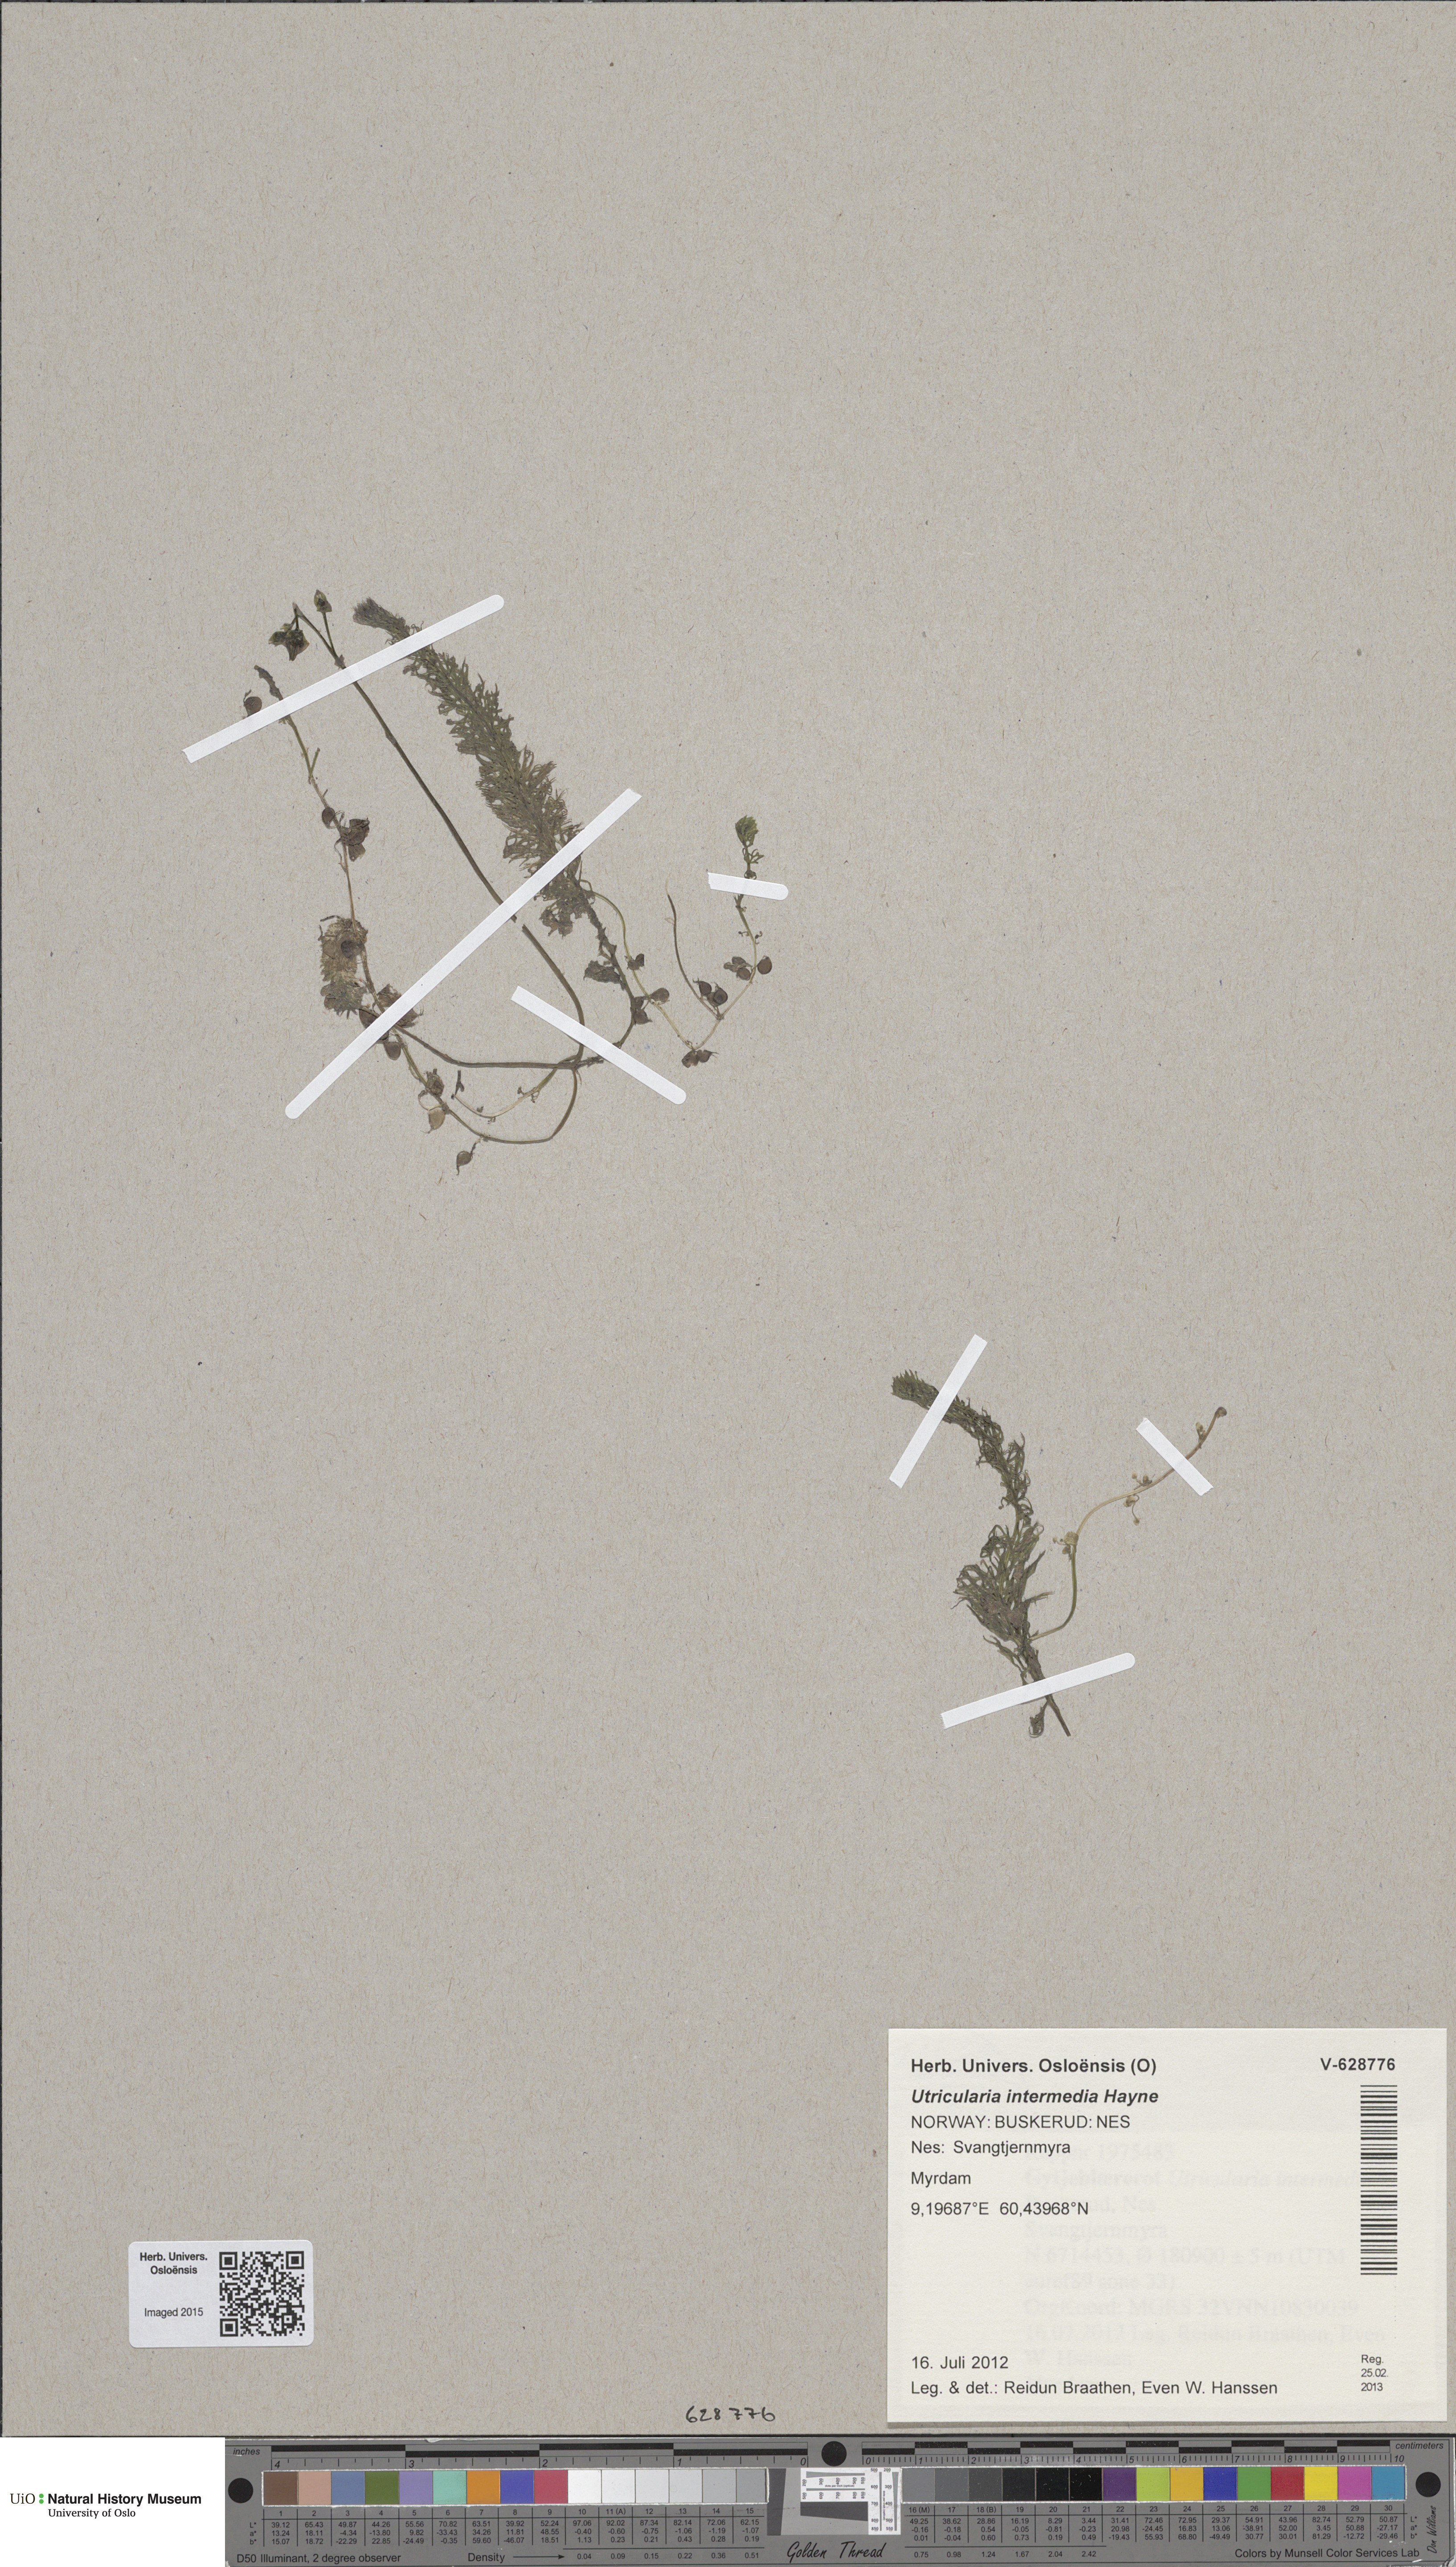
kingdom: Plantae
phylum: Tracheophyta
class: Magnoliopsida
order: Lamiales
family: Lentibulariaceae
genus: Utricularia
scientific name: Utricularia intermedia
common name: Intermediate bladderwort
